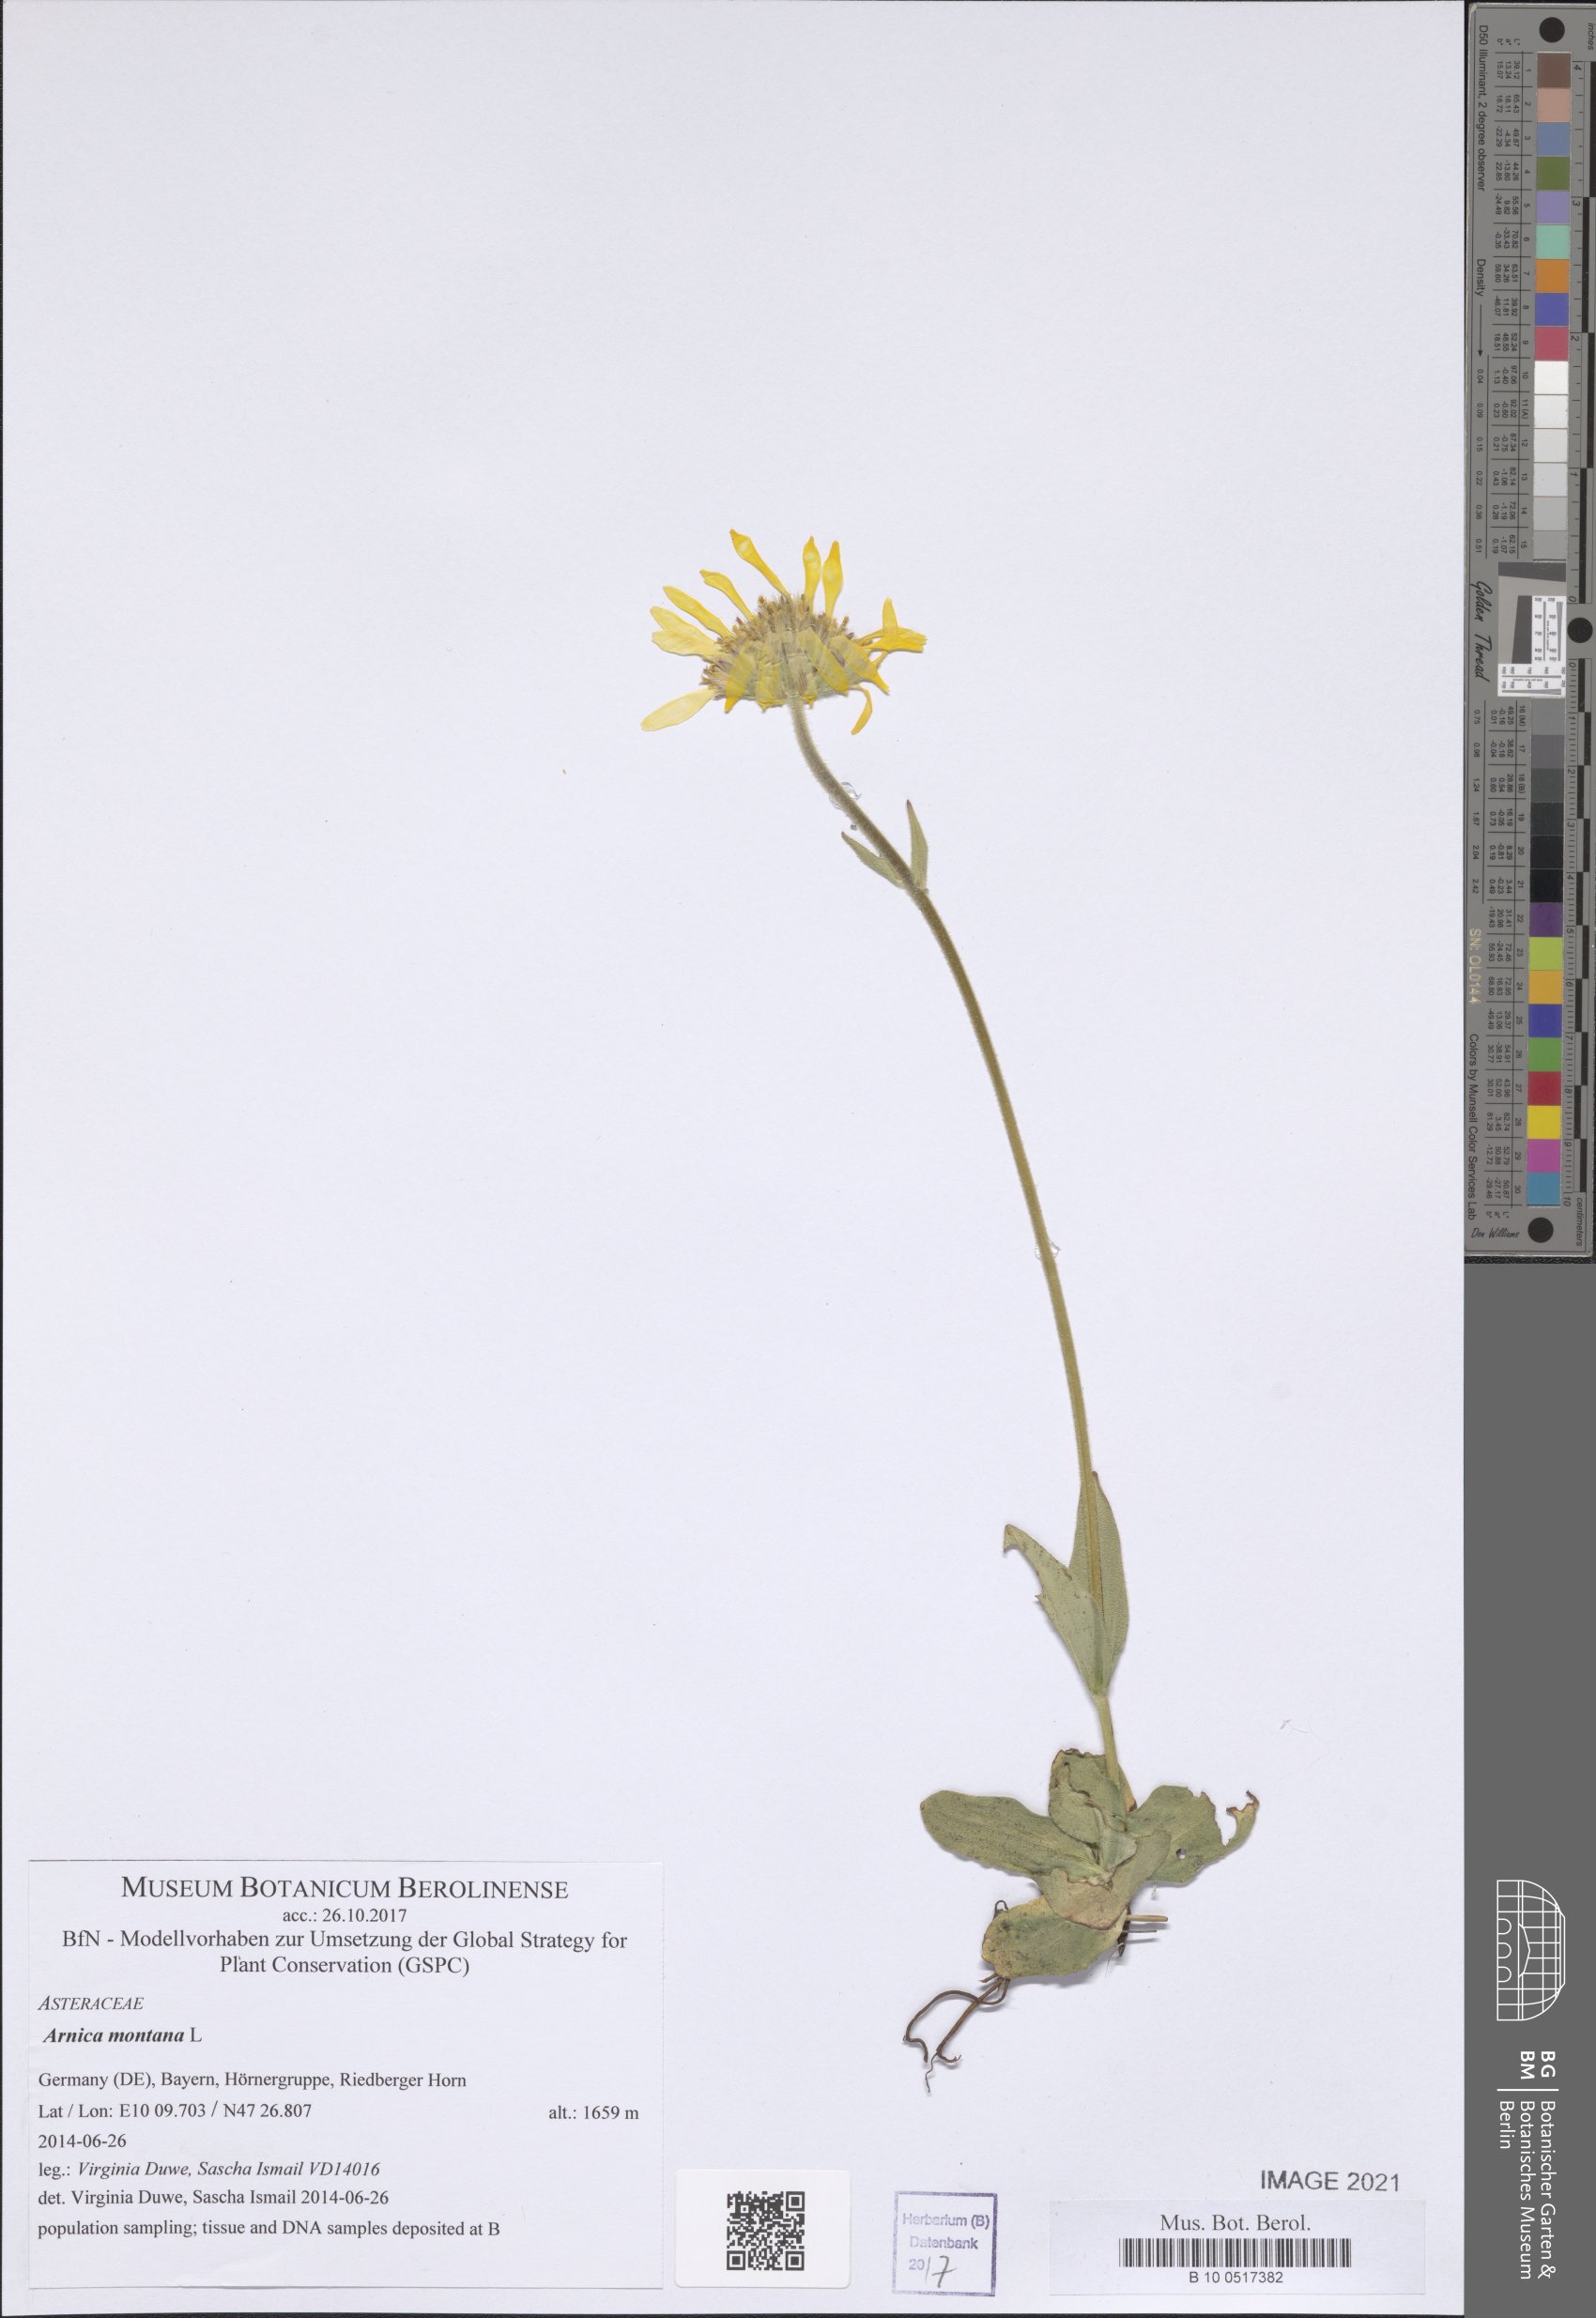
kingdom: Plantae
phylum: Tracheophyta
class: Magnoliopsida
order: Asterales
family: Asteraceae
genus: Arnica
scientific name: Arnica montana
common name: Leopard's bane
